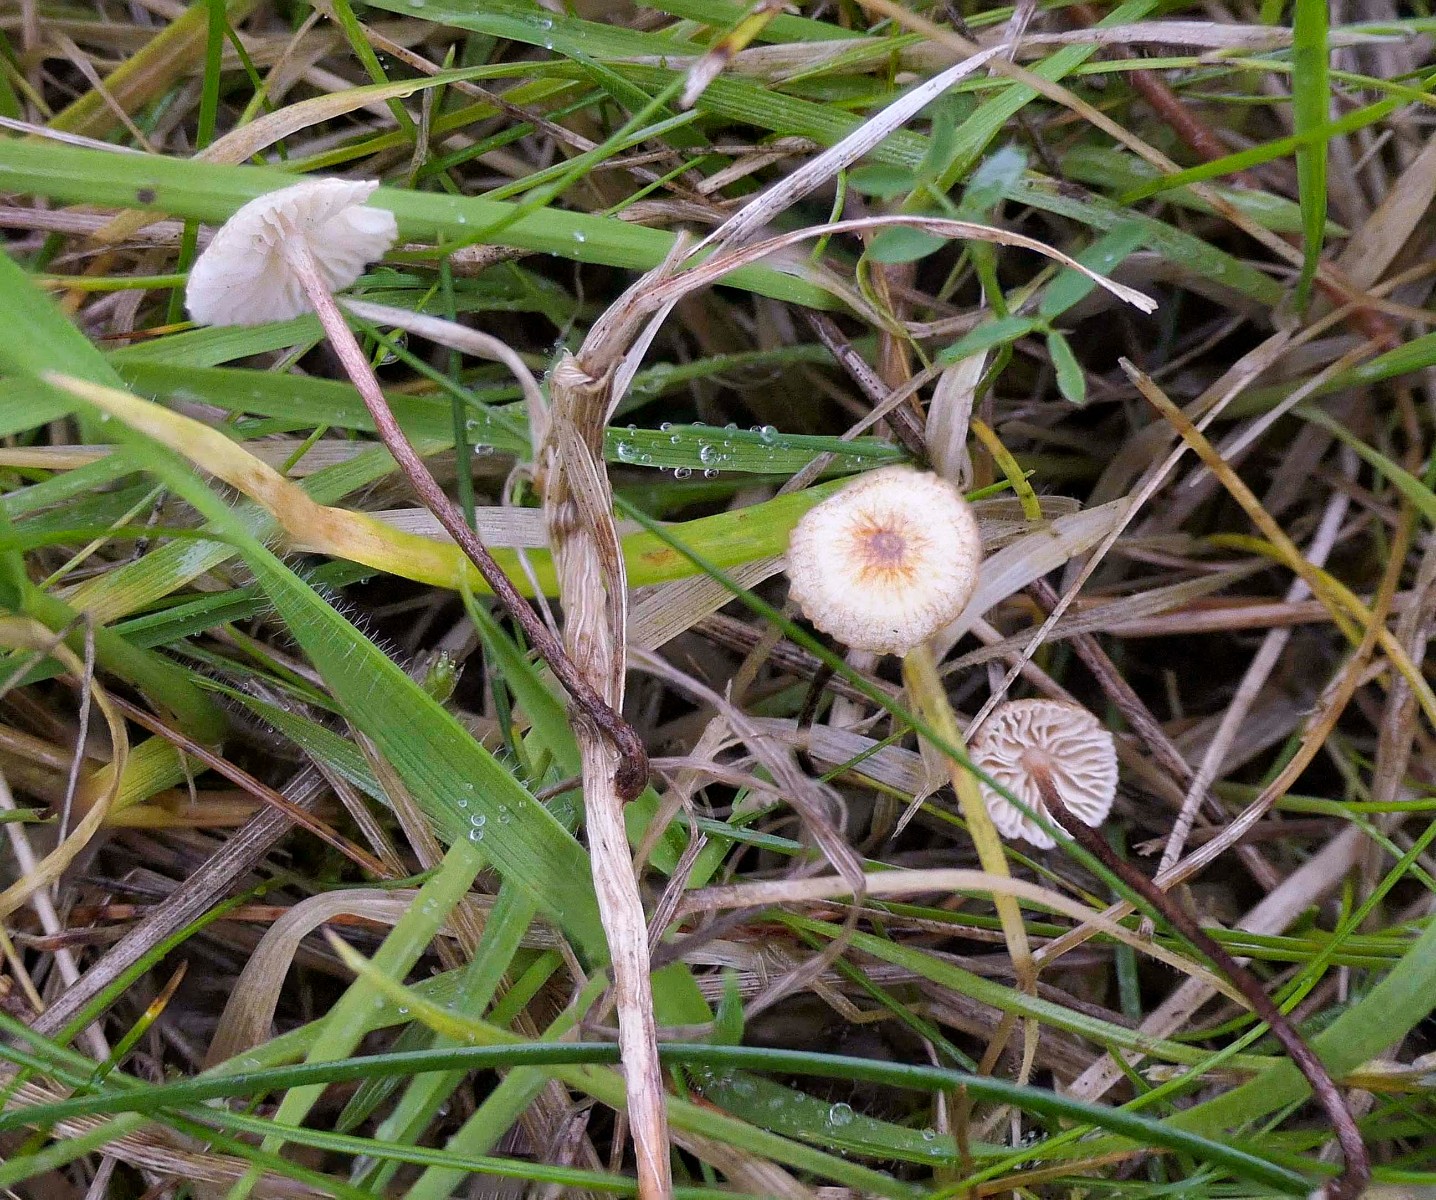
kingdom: Fungi
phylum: Basidiomycota
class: Agaricomycetes
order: Agaricales
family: Marasmiaceae
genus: Crinipellis
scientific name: Crinipellis scabella
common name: børstefod
